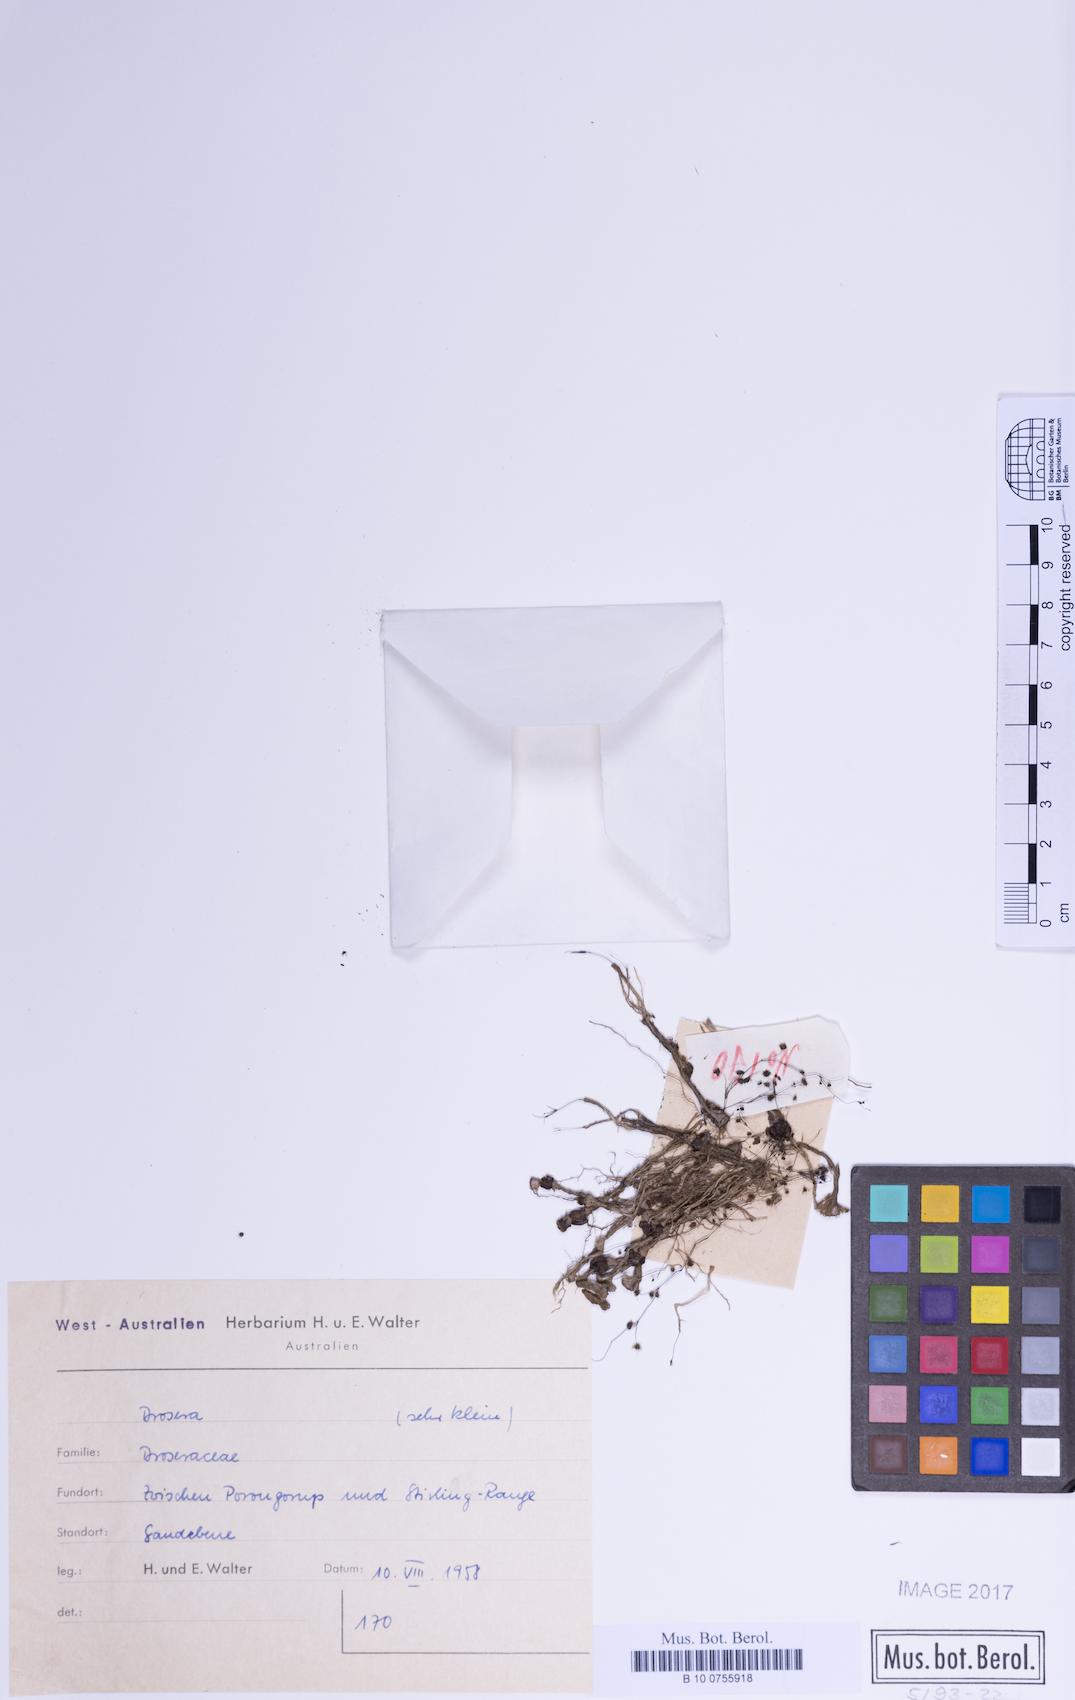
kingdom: Plantae
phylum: Tracheophyta
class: Magnoliopsida
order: Caryophyllales
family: Droseraceae
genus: Drosera
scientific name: Drosera
